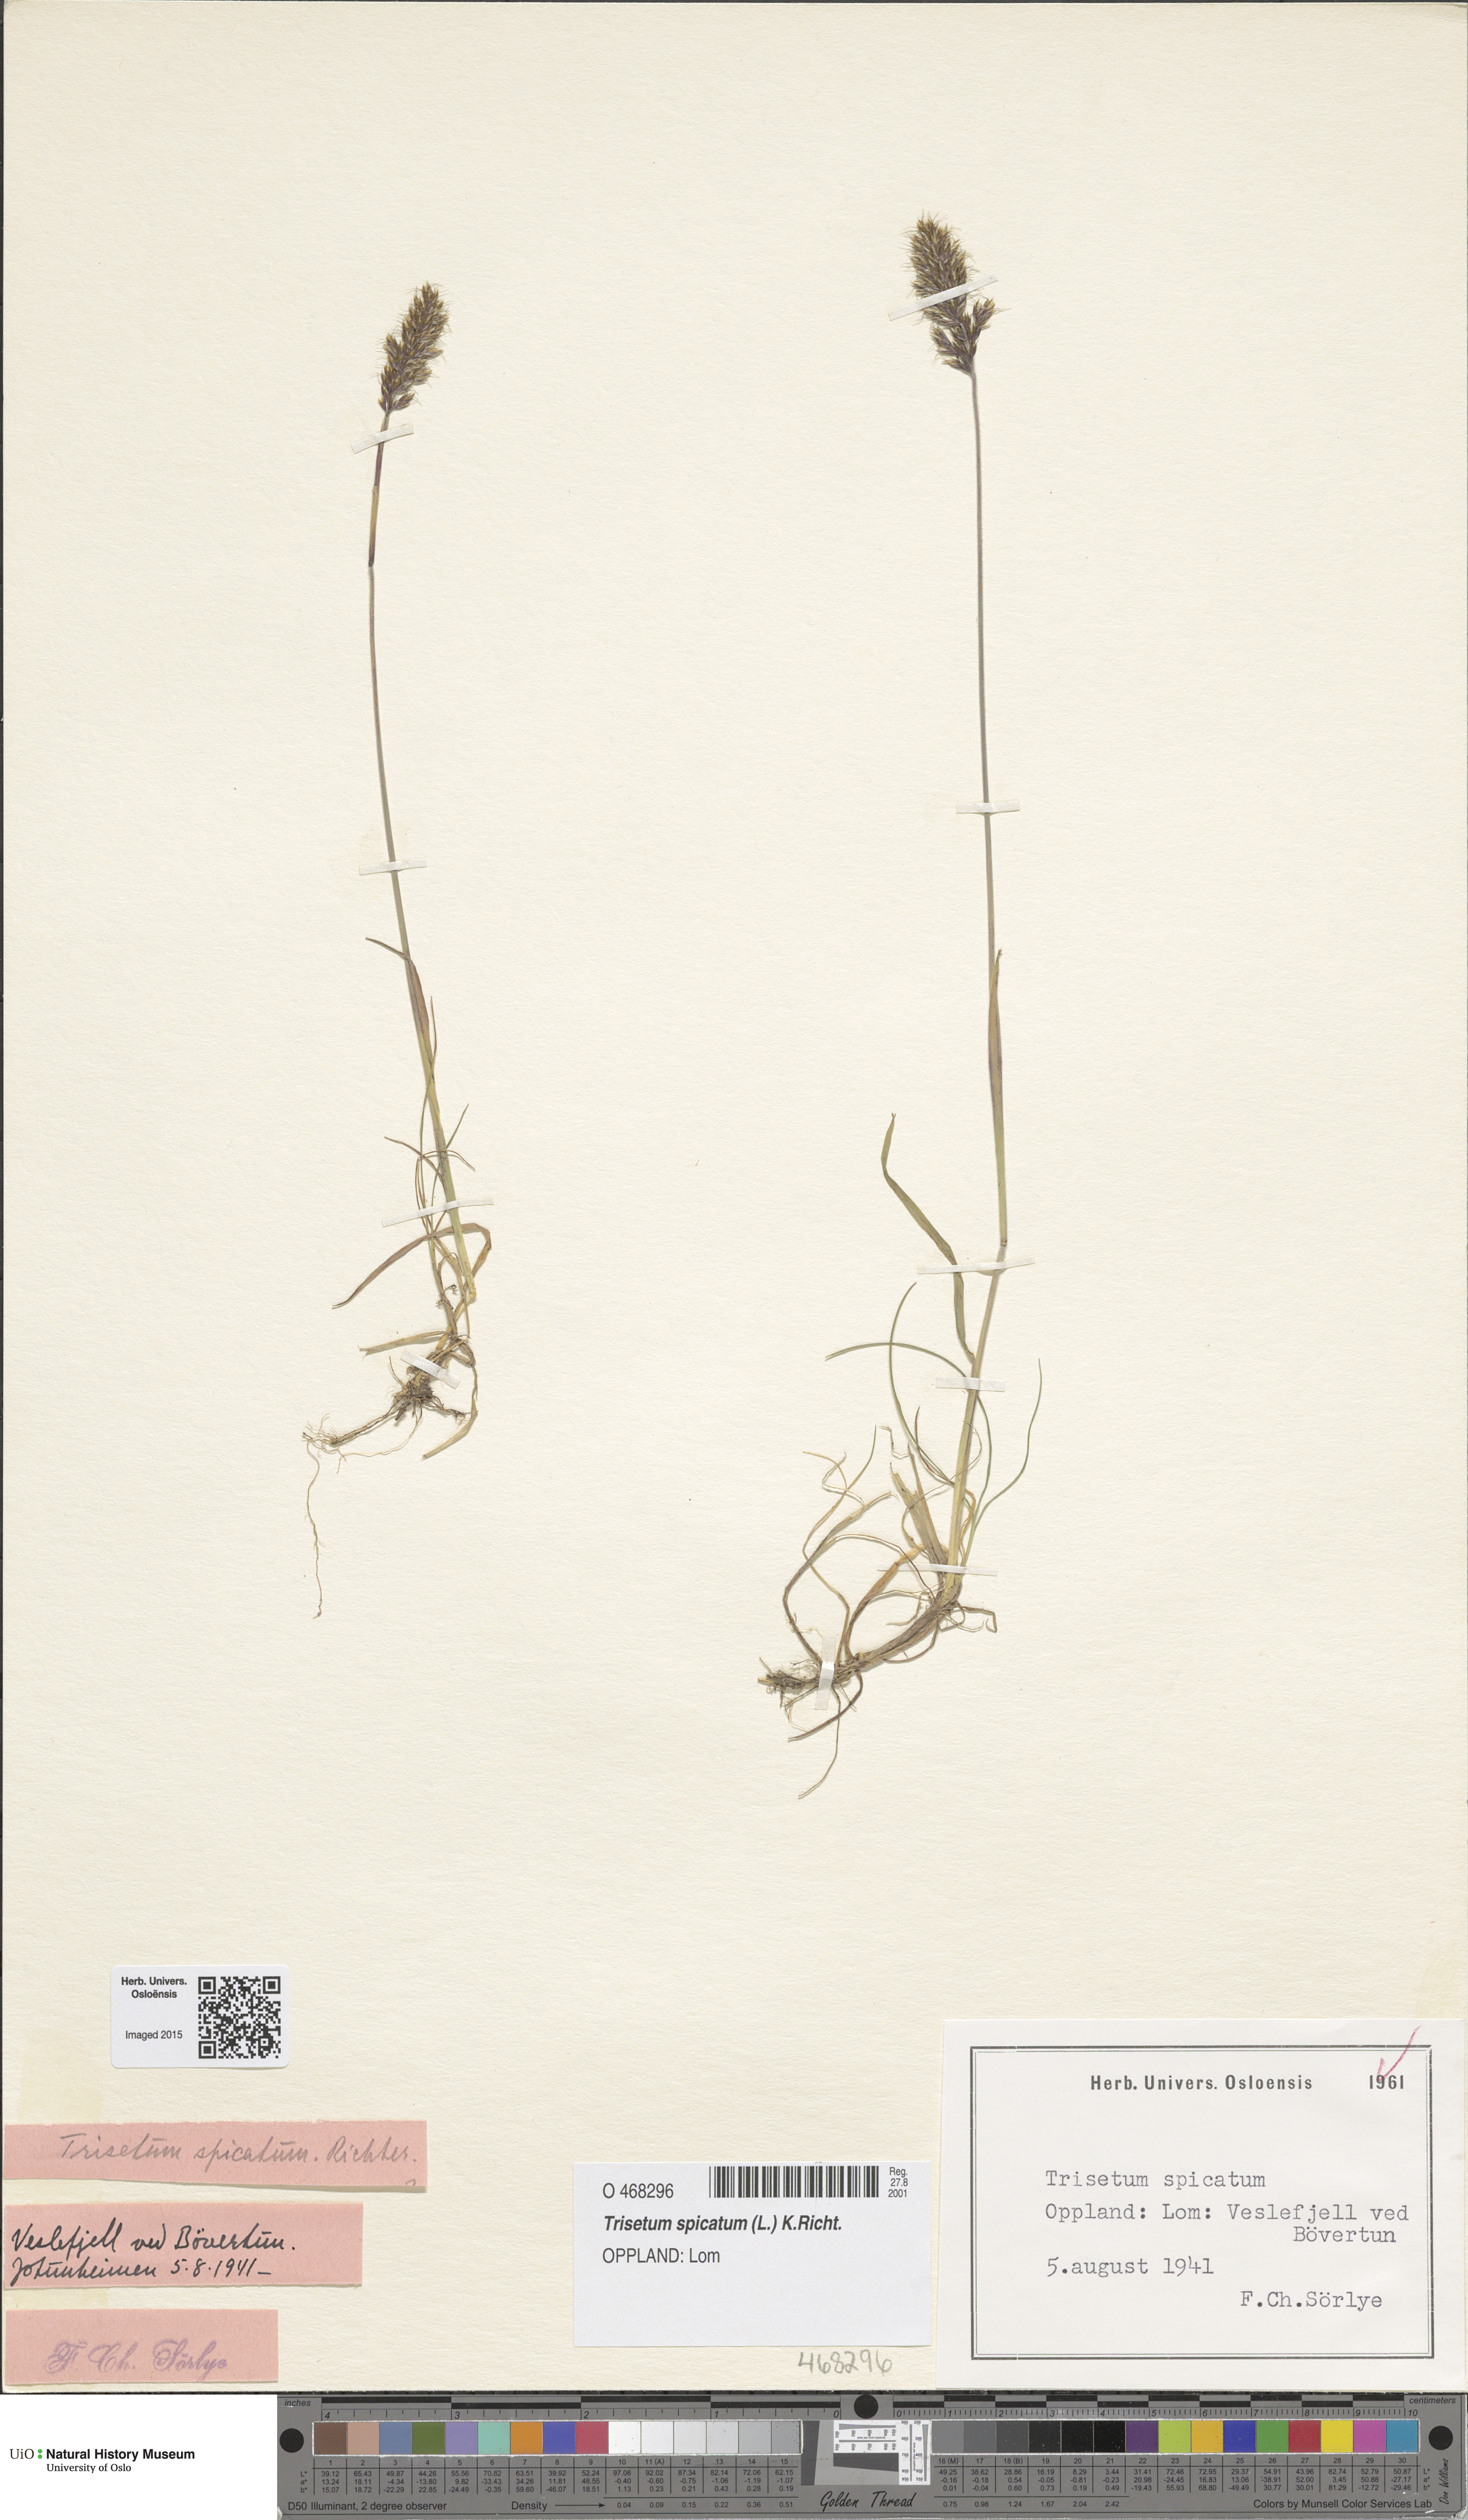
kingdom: Plantae
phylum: Tracheophyta
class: Liliopsida
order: Poales
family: Poaceae
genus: Koeleria
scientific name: Koeleria spicata
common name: Mountain trisetum
